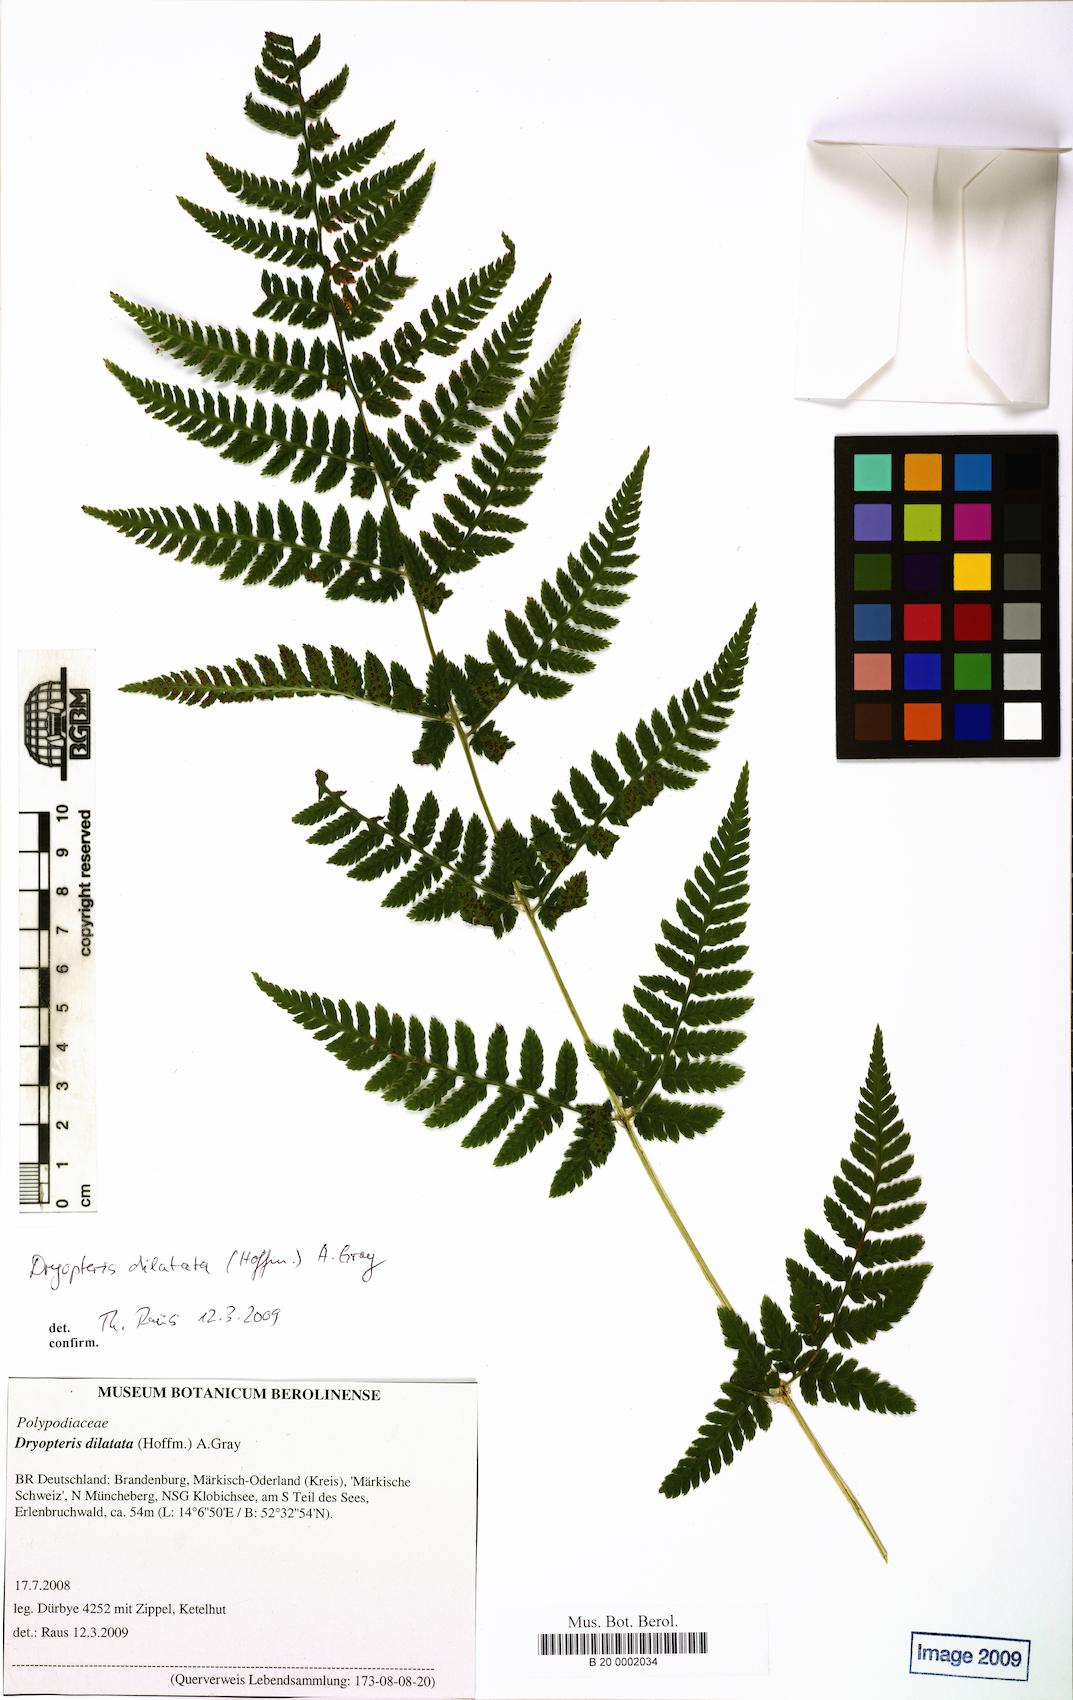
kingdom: Plantae
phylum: Tracheophyta
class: Polypodiopsida
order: Polypodiales
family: Dryopteridaceae
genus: Dryopteris
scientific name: Dryopteris dilatata
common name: Broad buckler-fern
